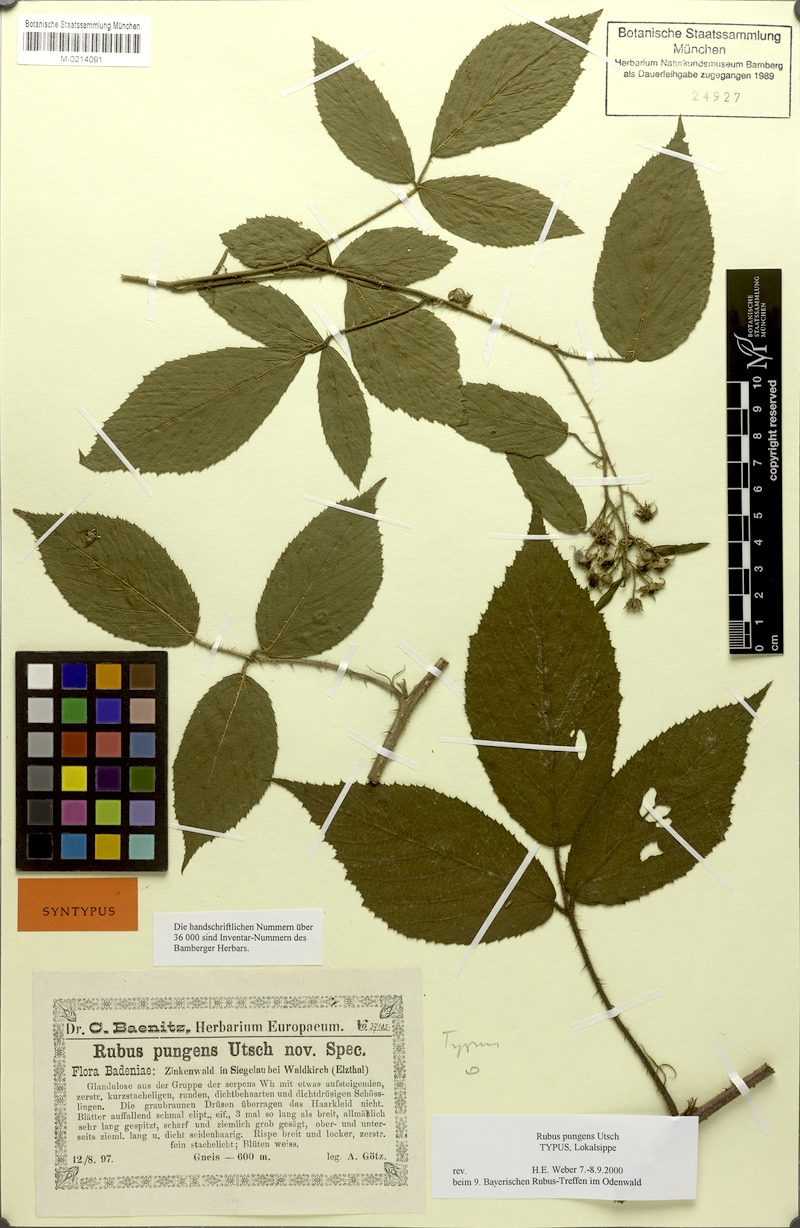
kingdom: Plantae
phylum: Tracheophyta
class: Magnoliopsida
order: Rosales
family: Rosaceae
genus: Rubus
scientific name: Rubus perplexus
